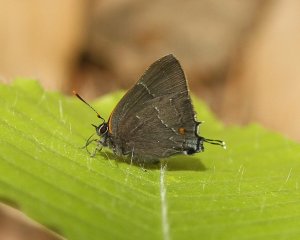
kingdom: Animalia
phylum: Arthropoda
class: Insecta
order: Lepidoptera
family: Lycaenidae
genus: Parrhasius
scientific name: Parrhasius m-album
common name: White-m Hairstreak
